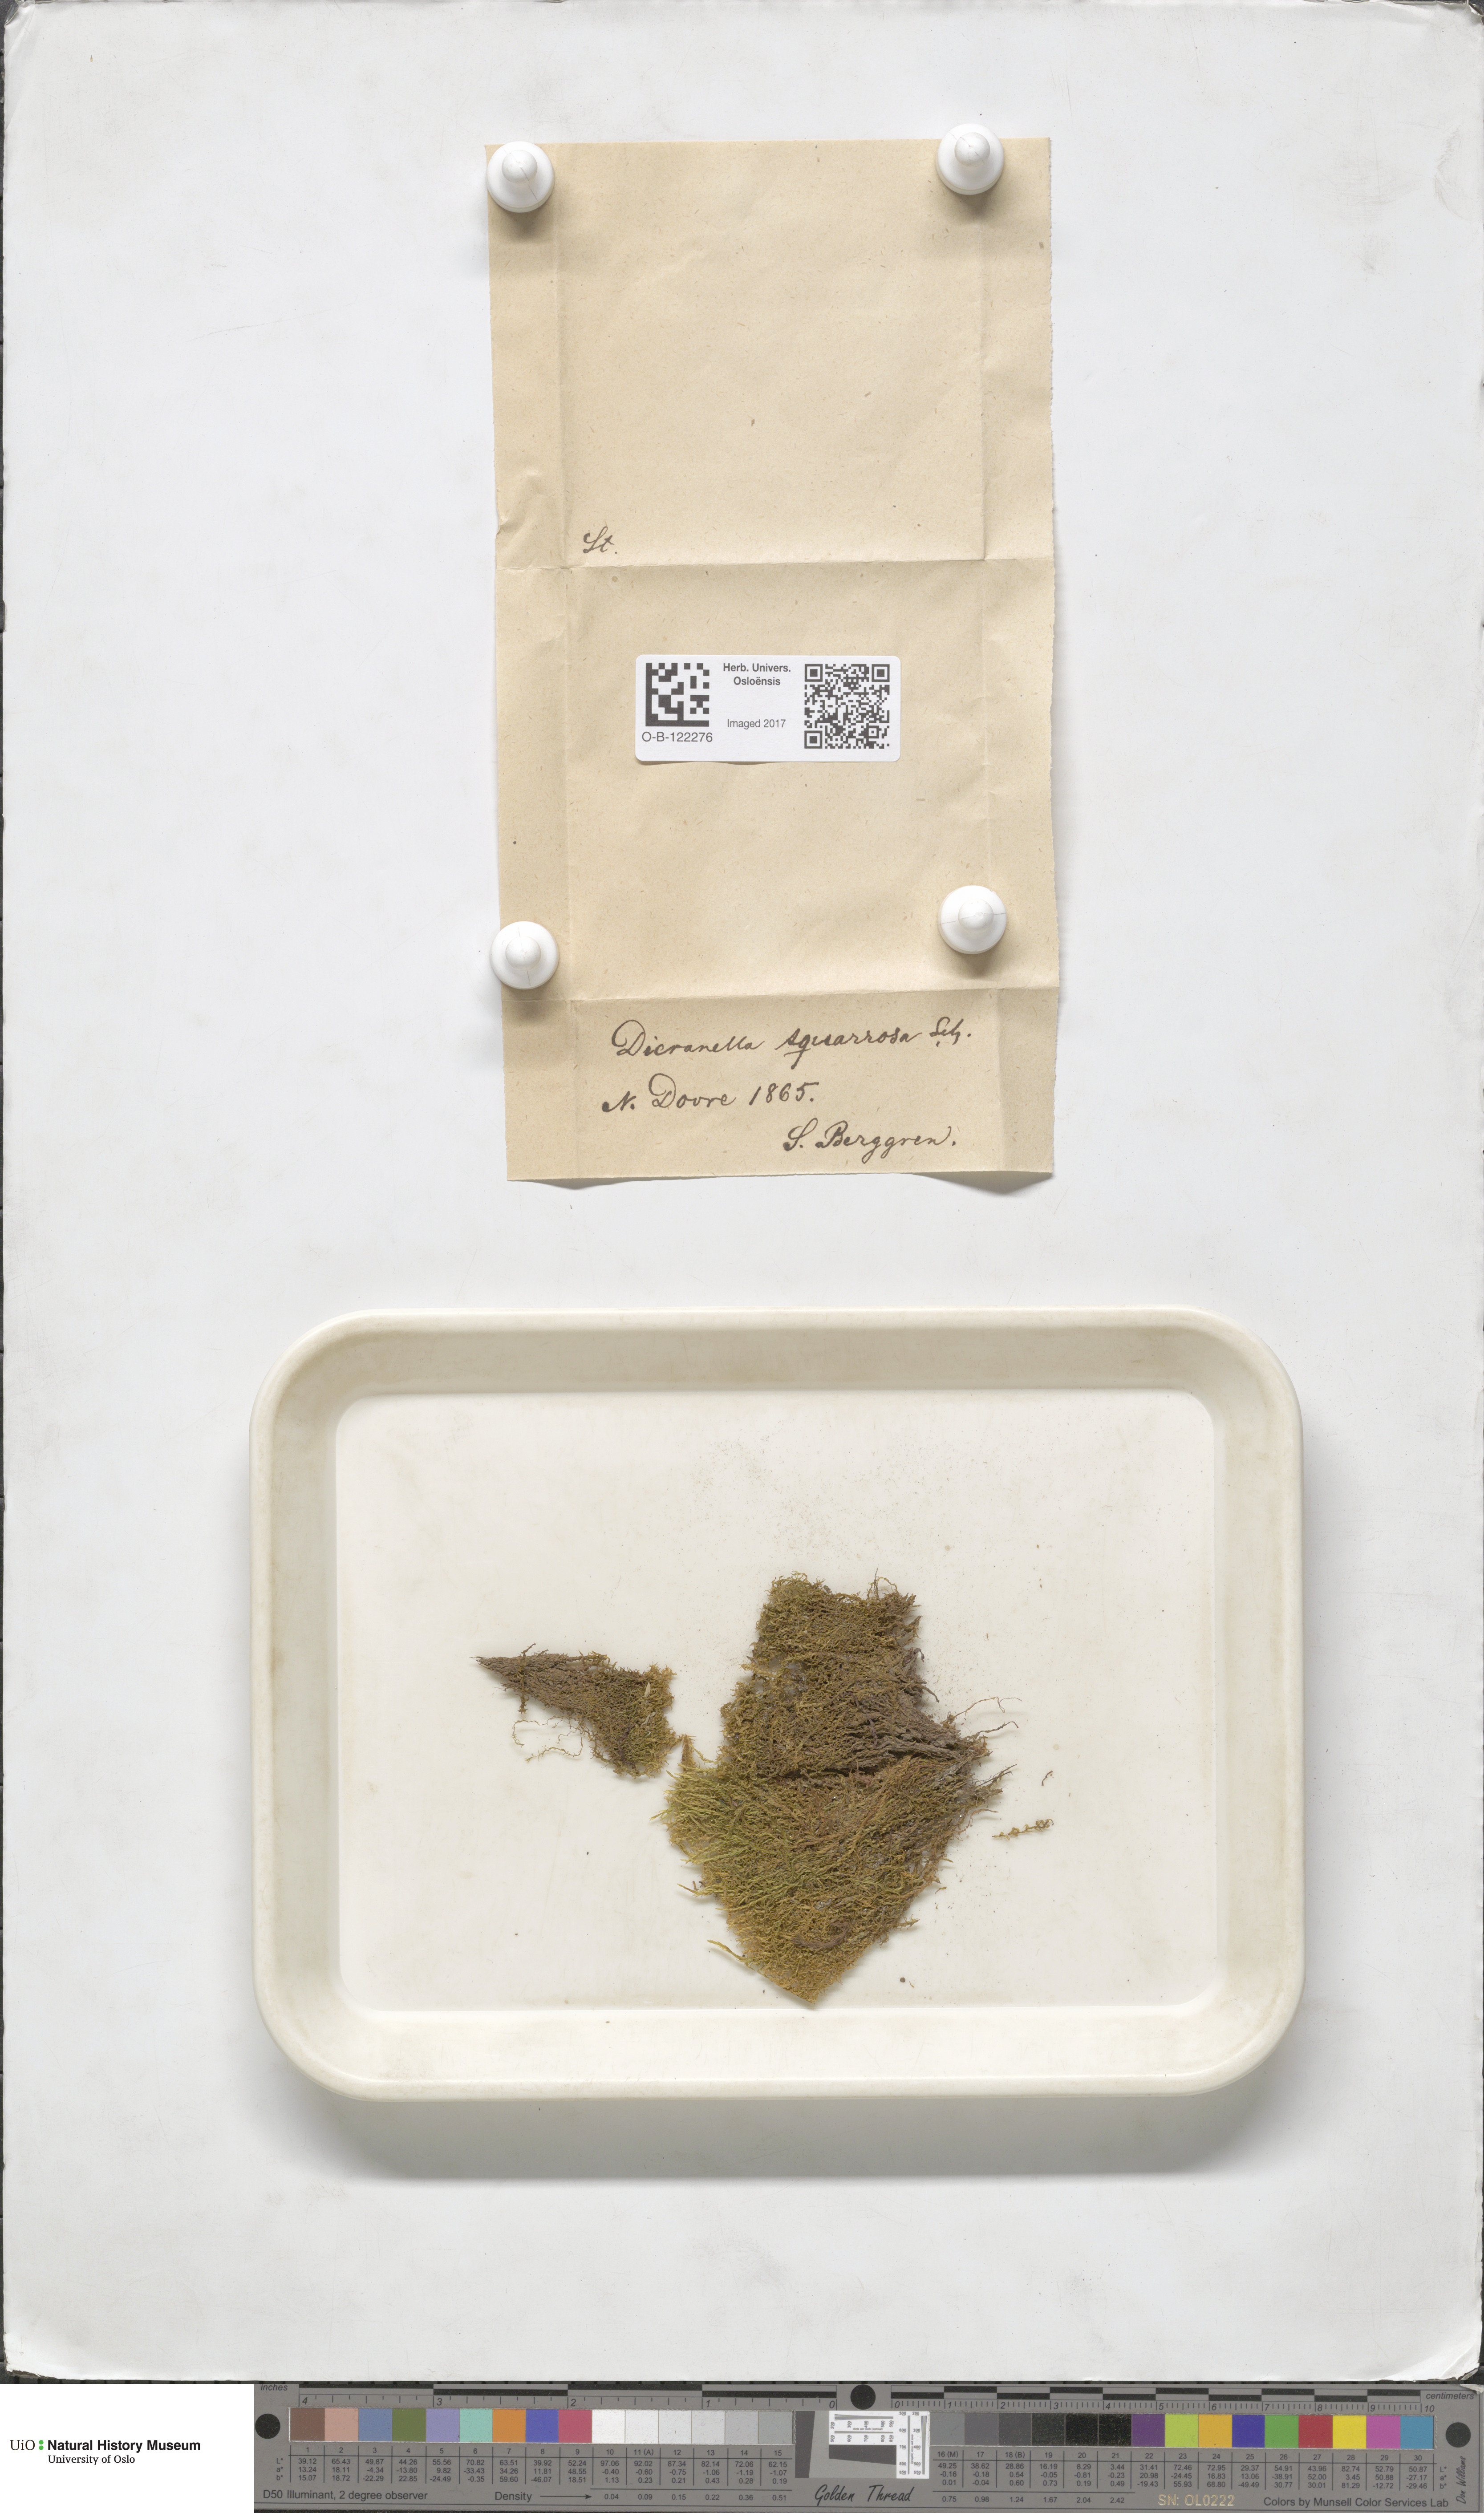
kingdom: Plantae
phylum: Bryophyta
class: Bryopsida
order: Dicranales
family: Aongstroemiaceae
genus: Diobelonella
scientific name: Diobelonella palustris
